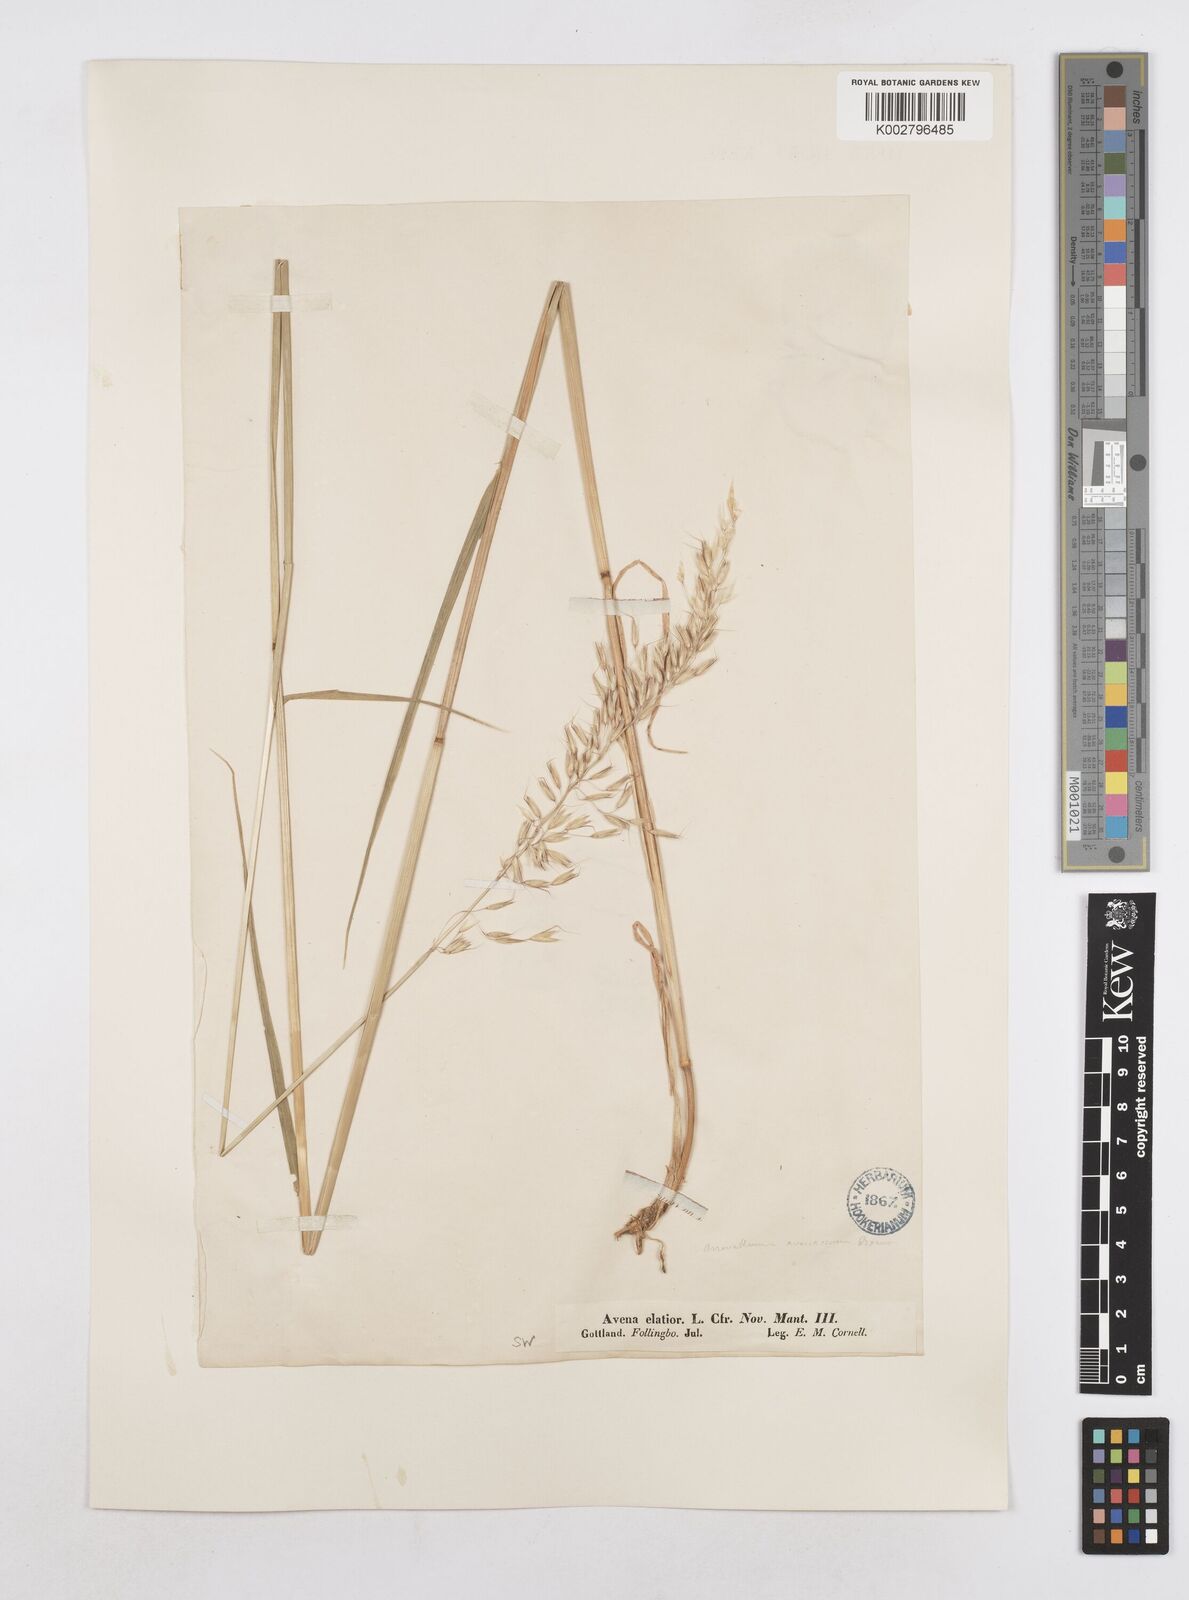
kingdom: Plantae
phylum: Tracheophyta
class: Liliopsida
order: Poales
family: Poaceae
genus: Arrhenatherum
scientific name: Arrhenatherum elatius
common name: Tall oatgrass
